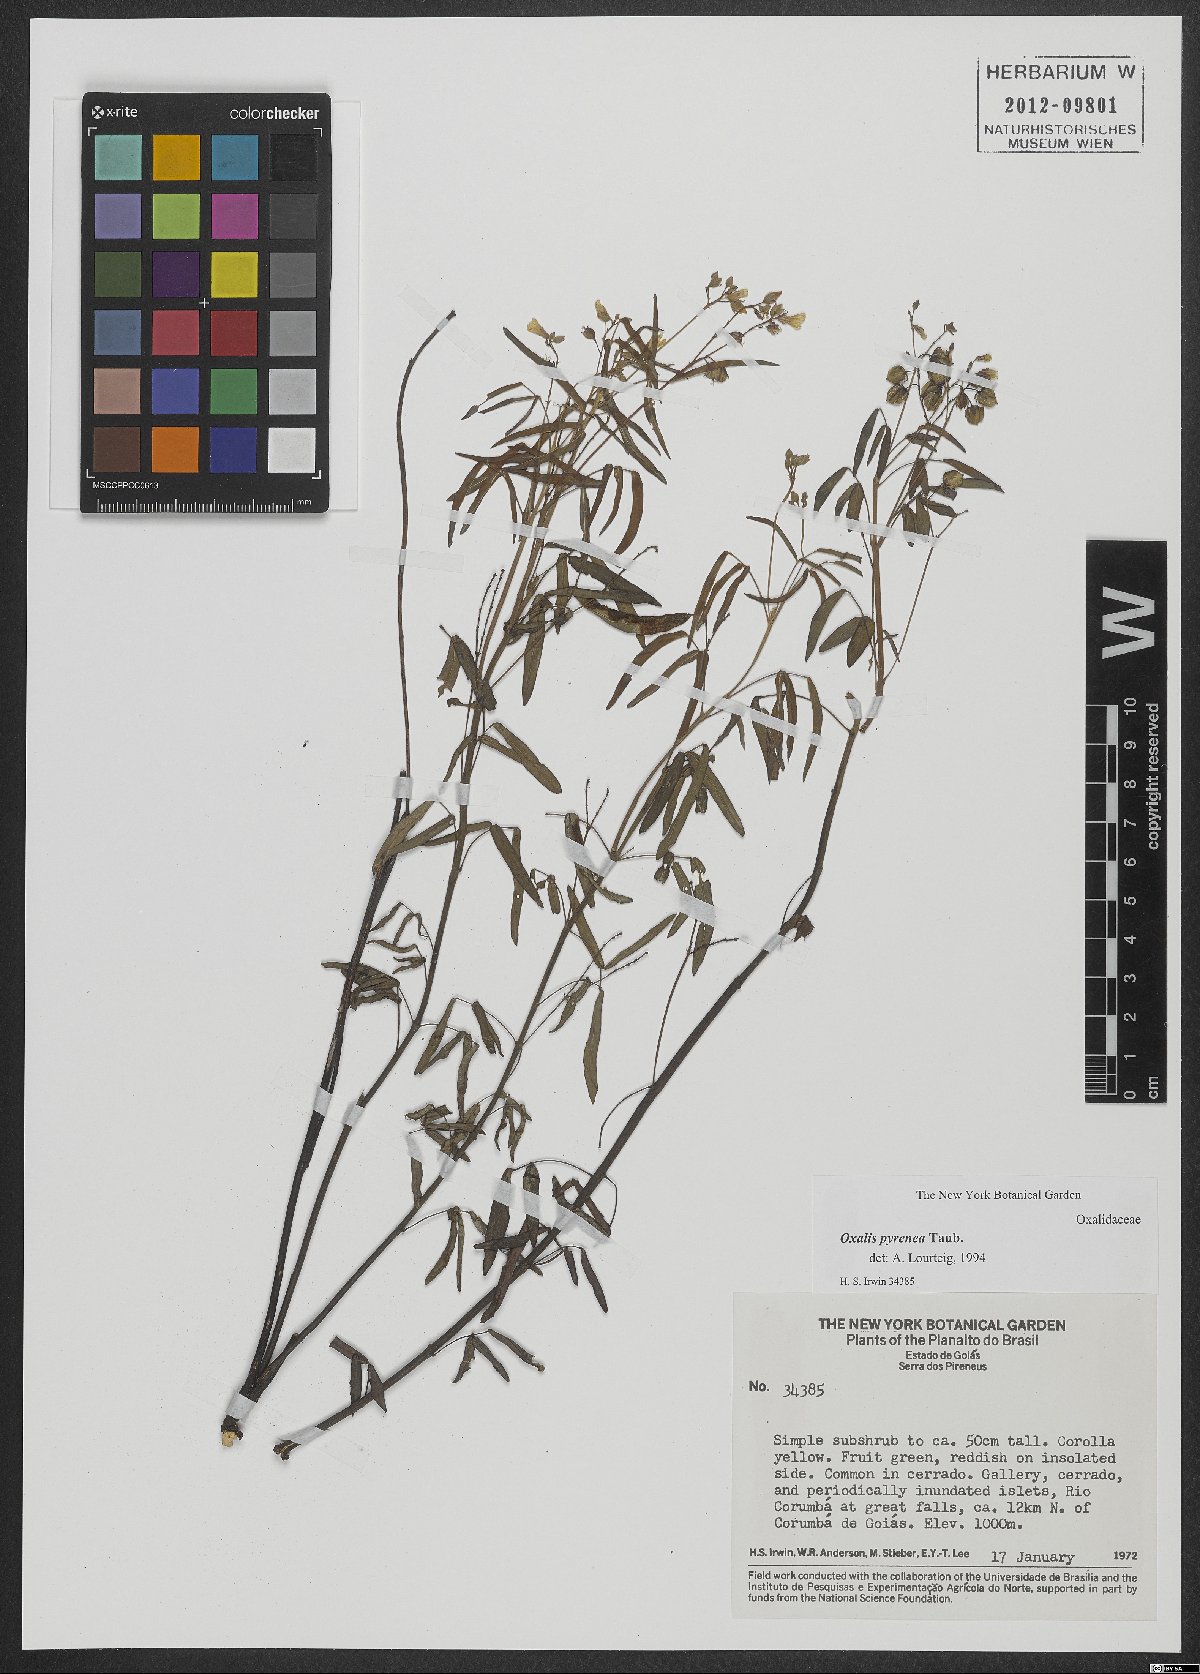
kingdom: Plantae
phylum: Tracheophyta
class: Magnoliopsida
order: Oxalidales
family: Oxalidaceae
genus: Oxalis
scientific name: Oxalis pyrenea
